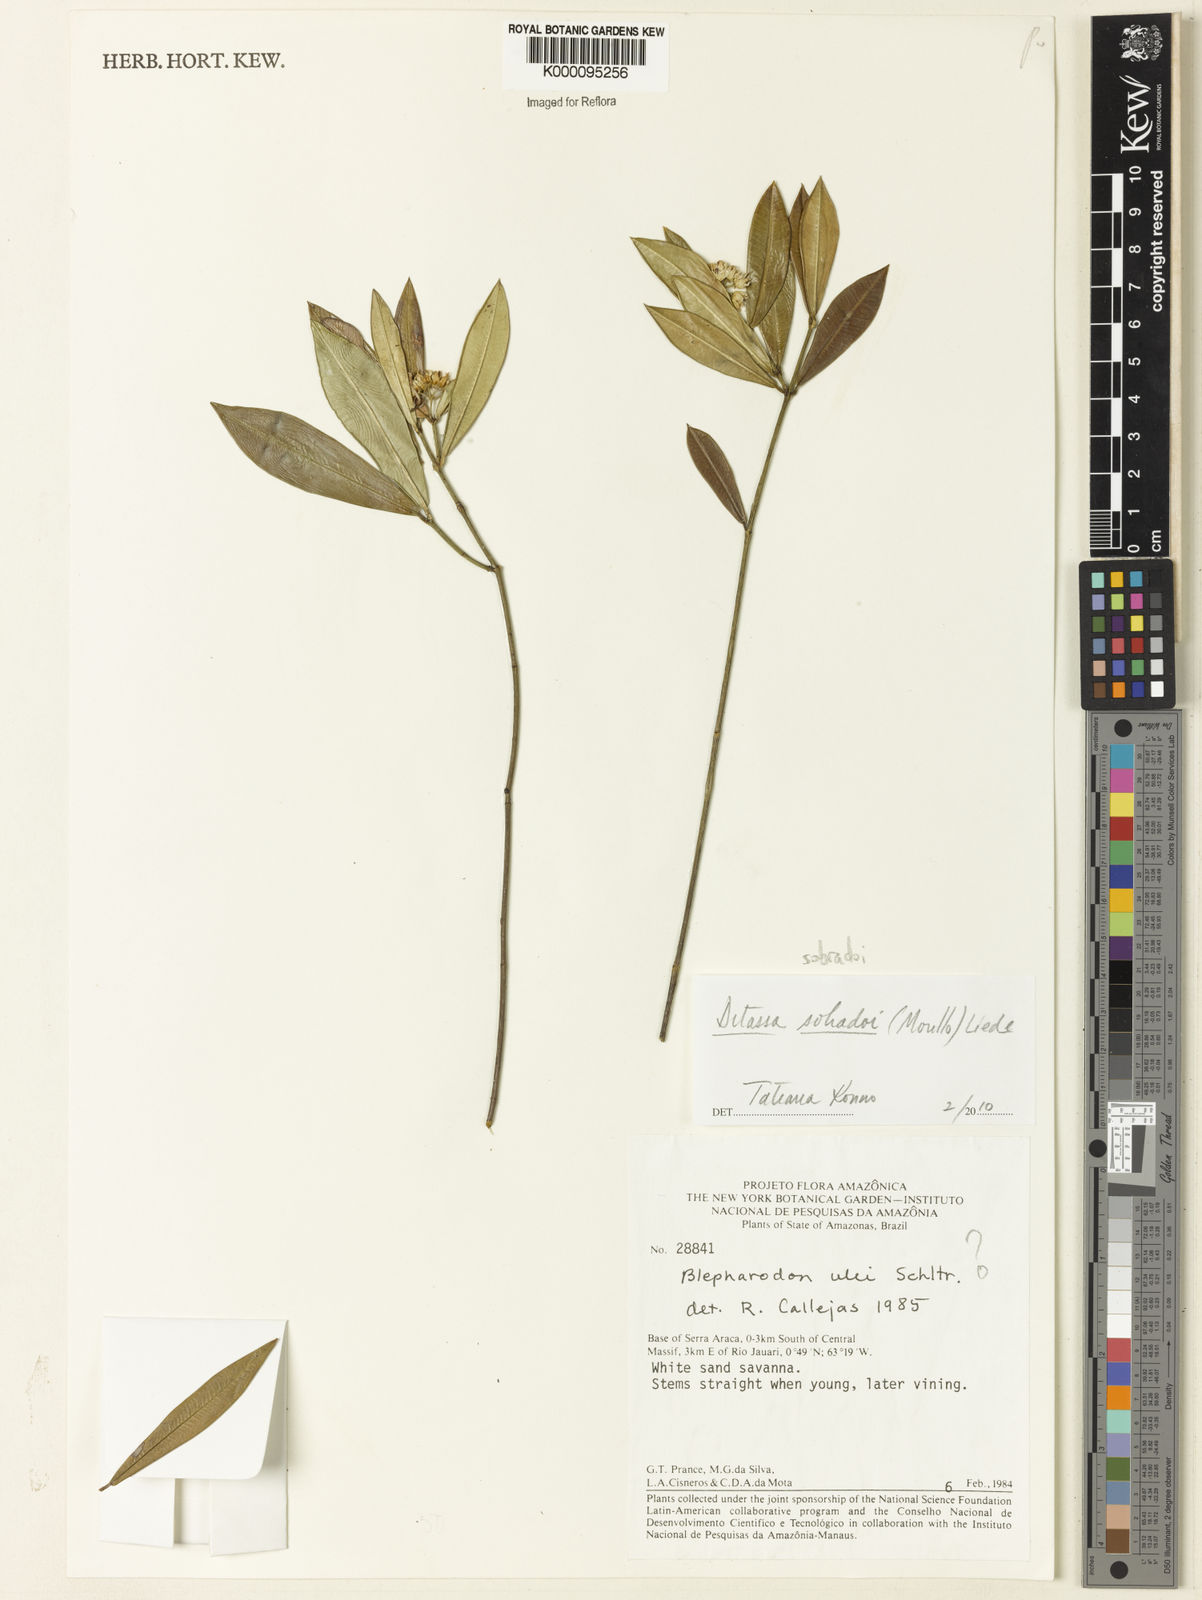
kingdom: Plantae
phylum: Tracheophyta
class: Magnoliopsida
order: Gentianales
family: Apocynaceae
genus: Ditassa
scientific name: Ditassa sobradoi
